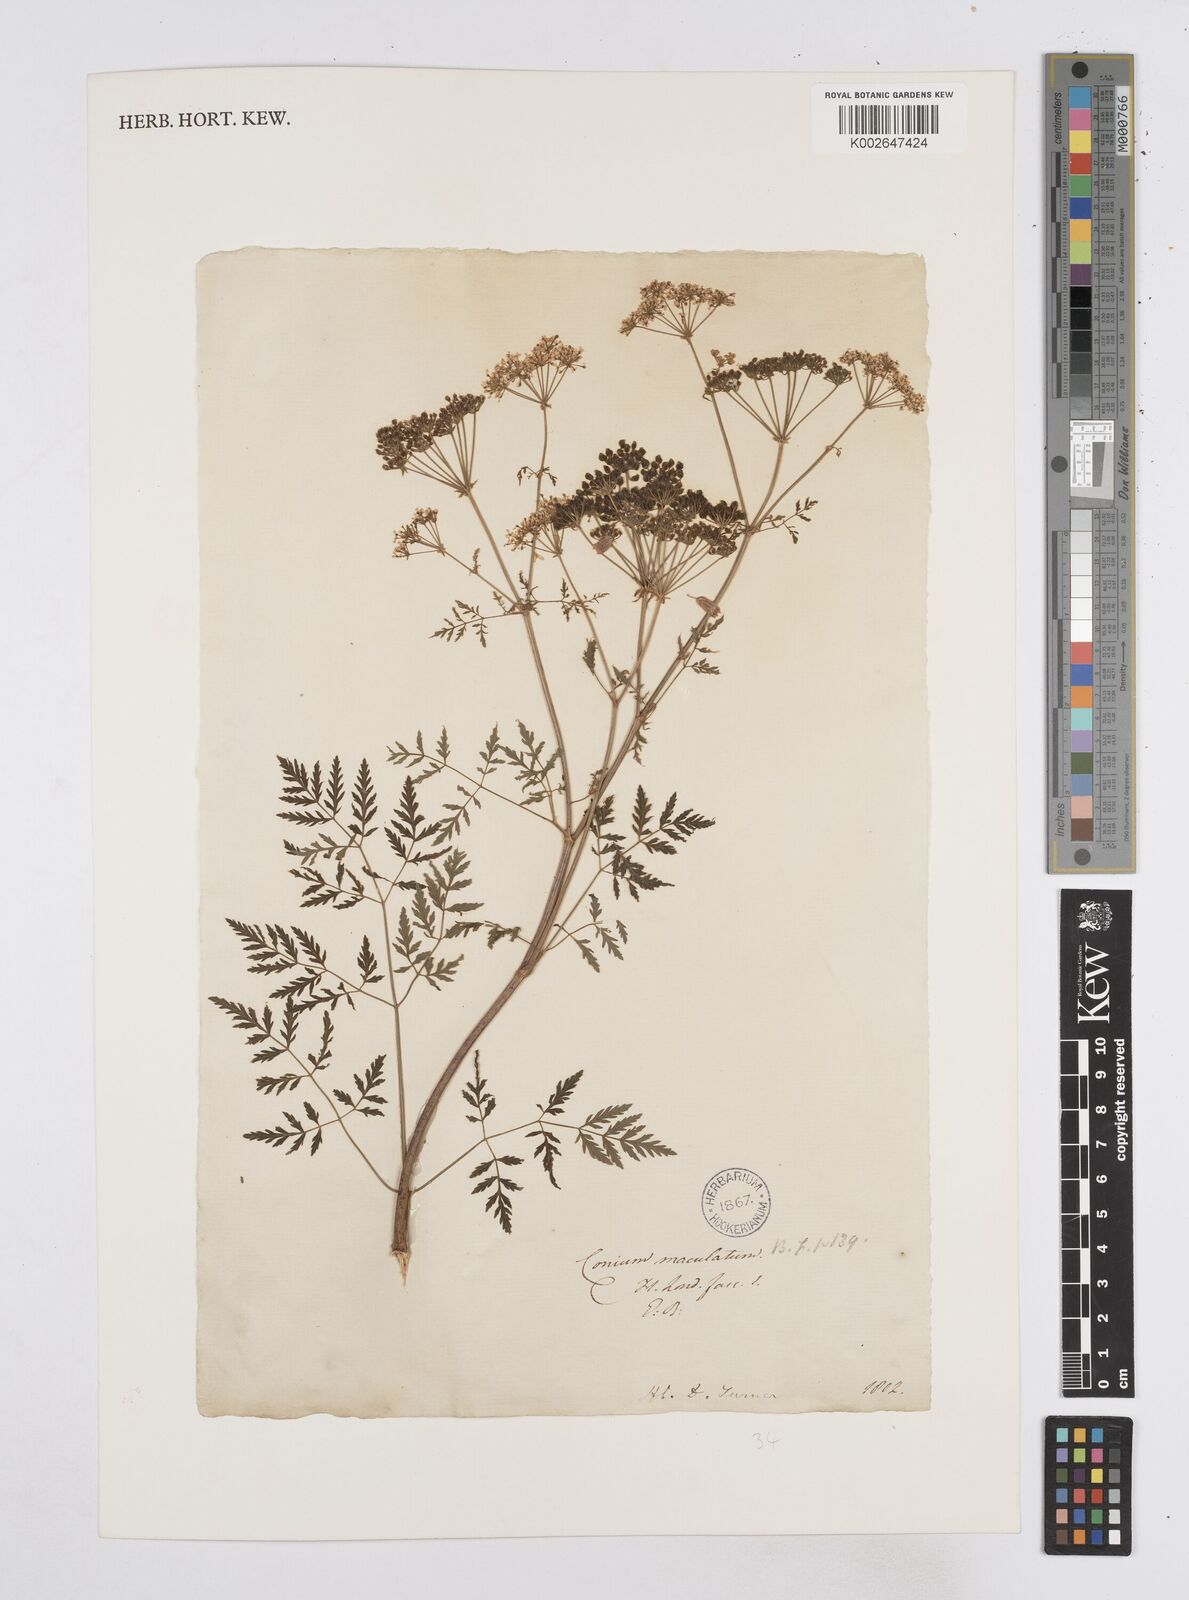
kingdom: Plantae
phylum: Tracheophyta
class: Magnoliopsida
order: Apiales
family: Apiaceae
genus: Conium
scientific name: Conium maculatum
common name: Hemlock
